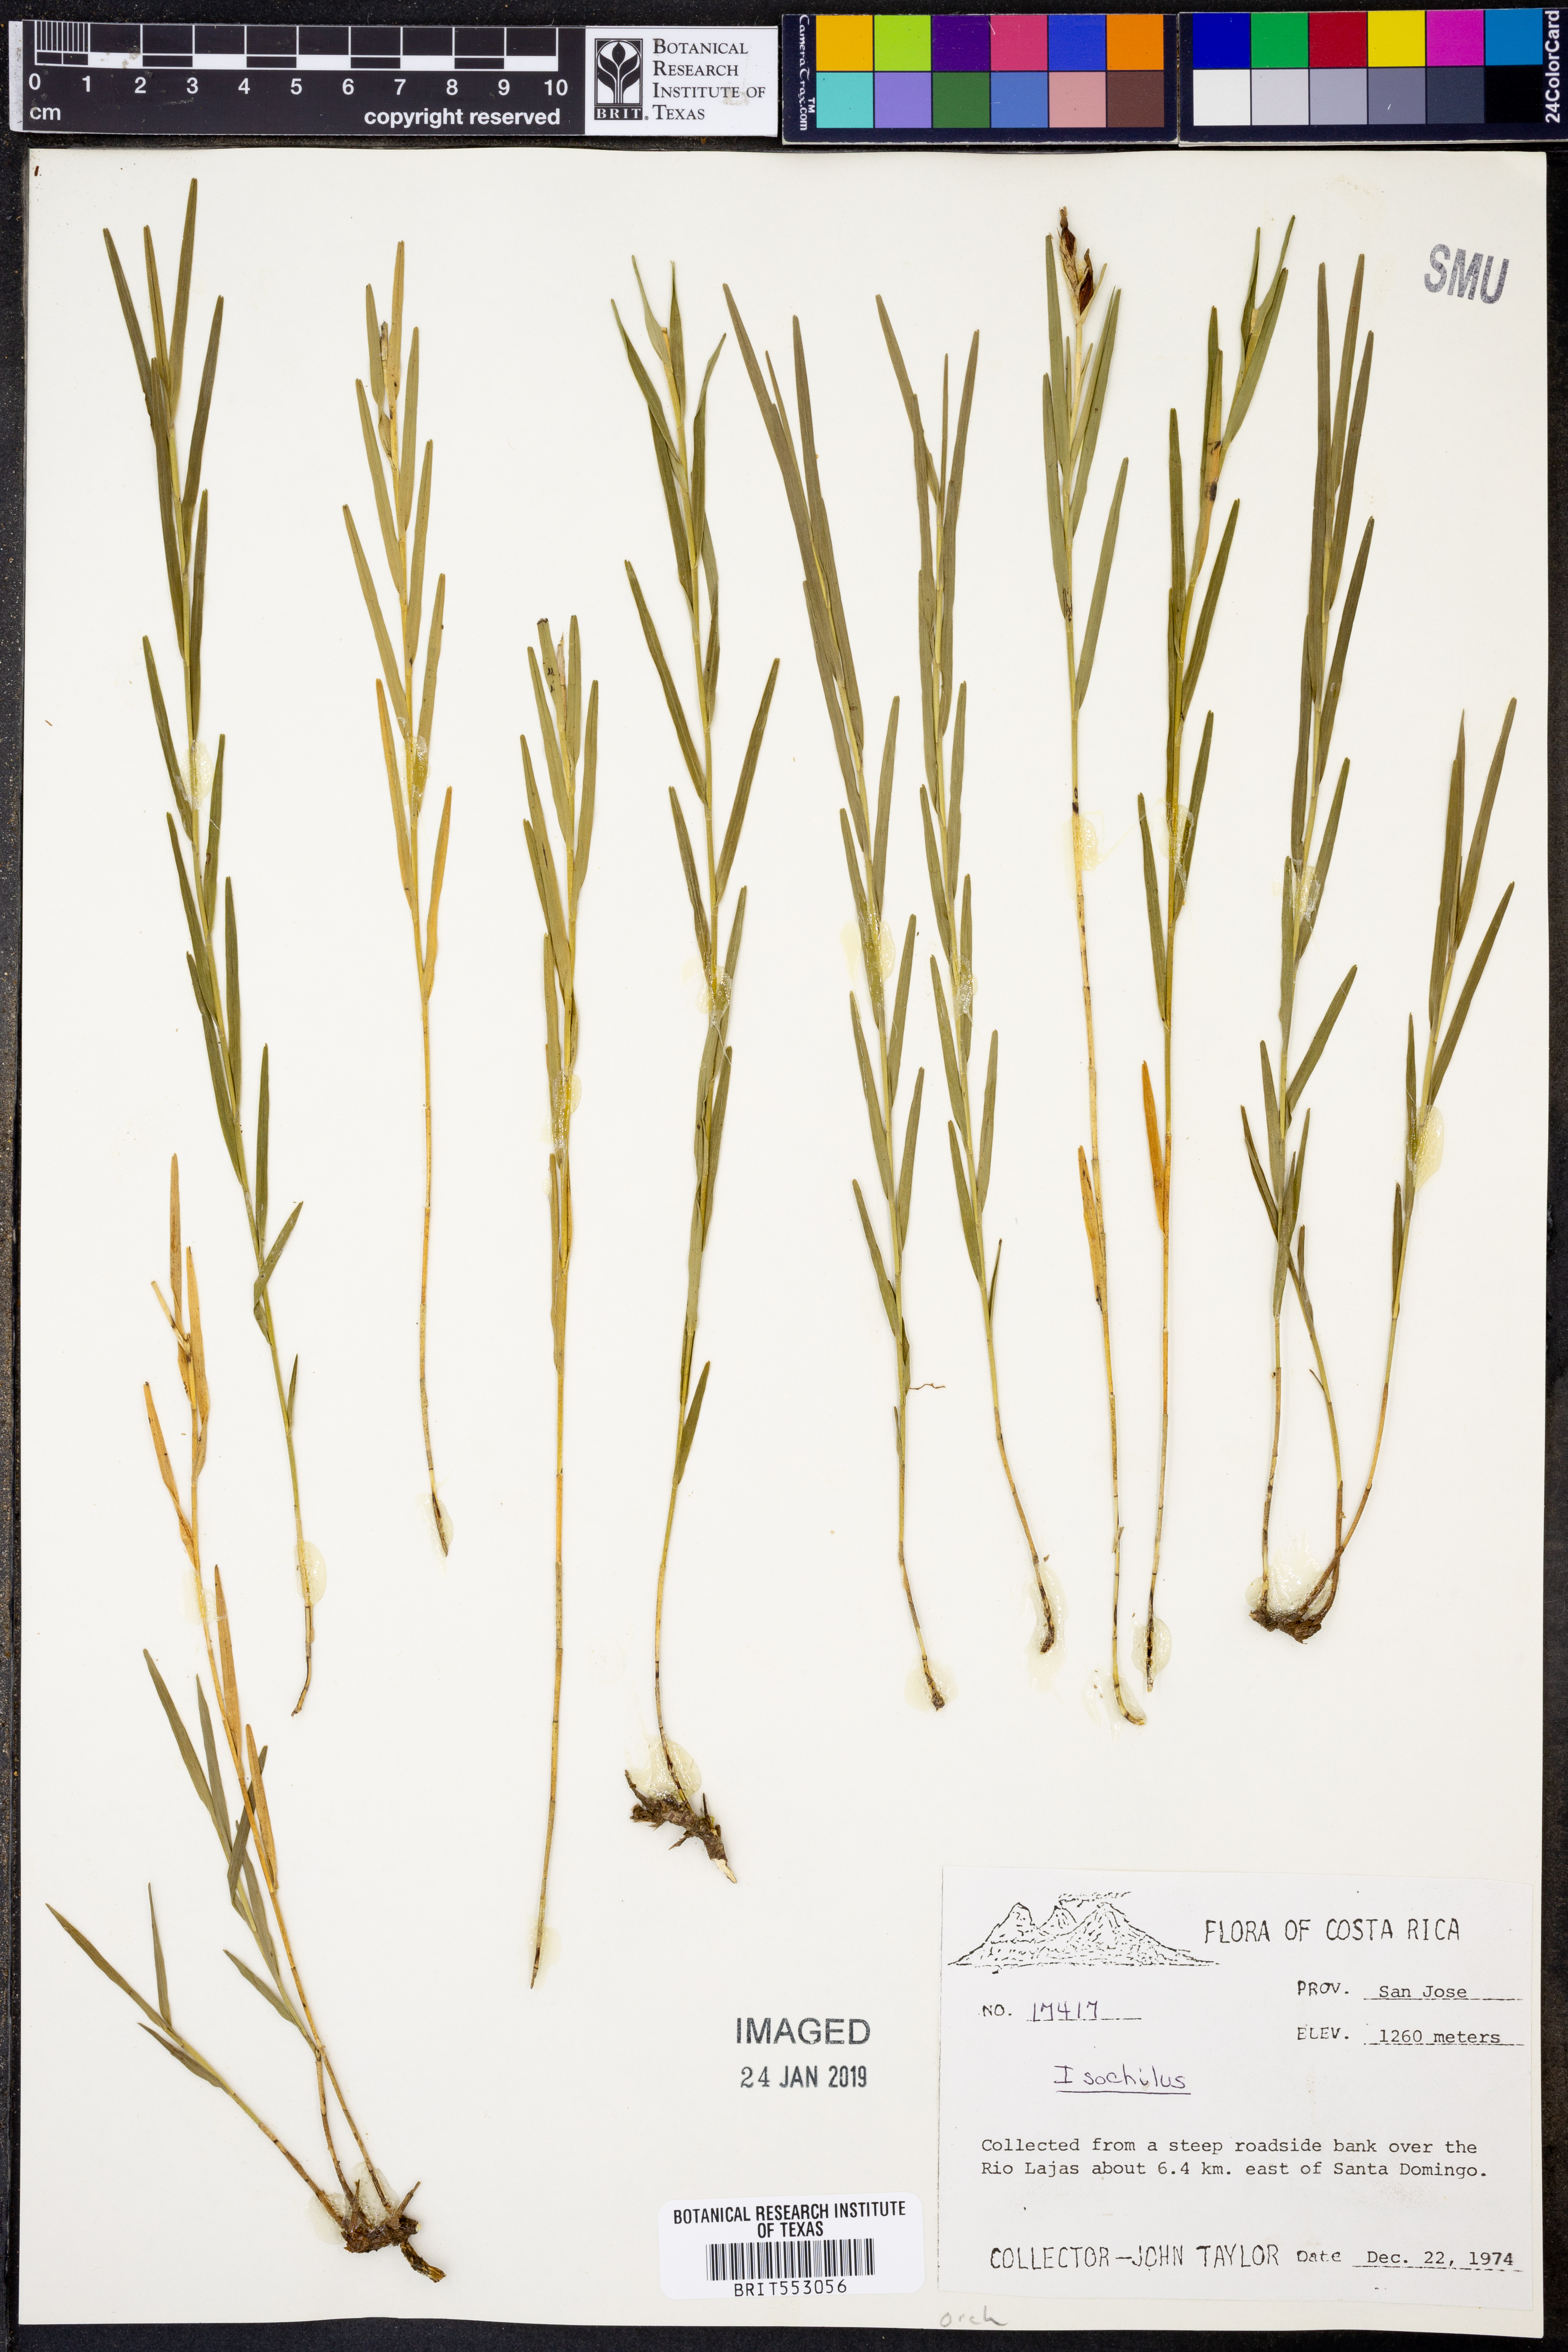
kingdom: Plantae
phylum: Tracheophyta
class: Liliopsida
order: Asparagales
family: Orchidaceae
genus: Isochilus
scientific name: Isochilus
